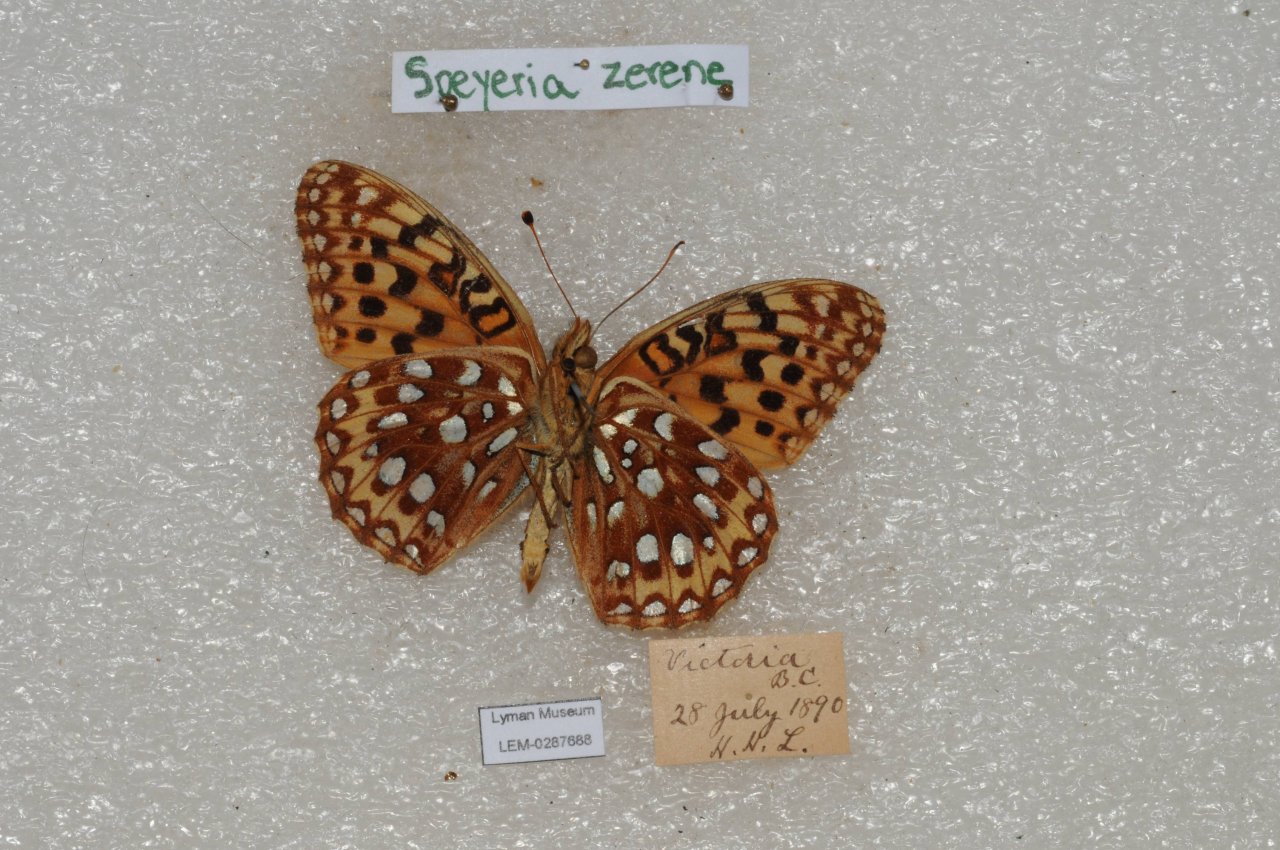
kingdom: Animalia
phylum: Arthropoda
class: Insecta
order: Lepidoptera
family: Nymphalidae
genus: Speyeria
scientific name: Speyeria zerene
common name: Zerene Fritillary
